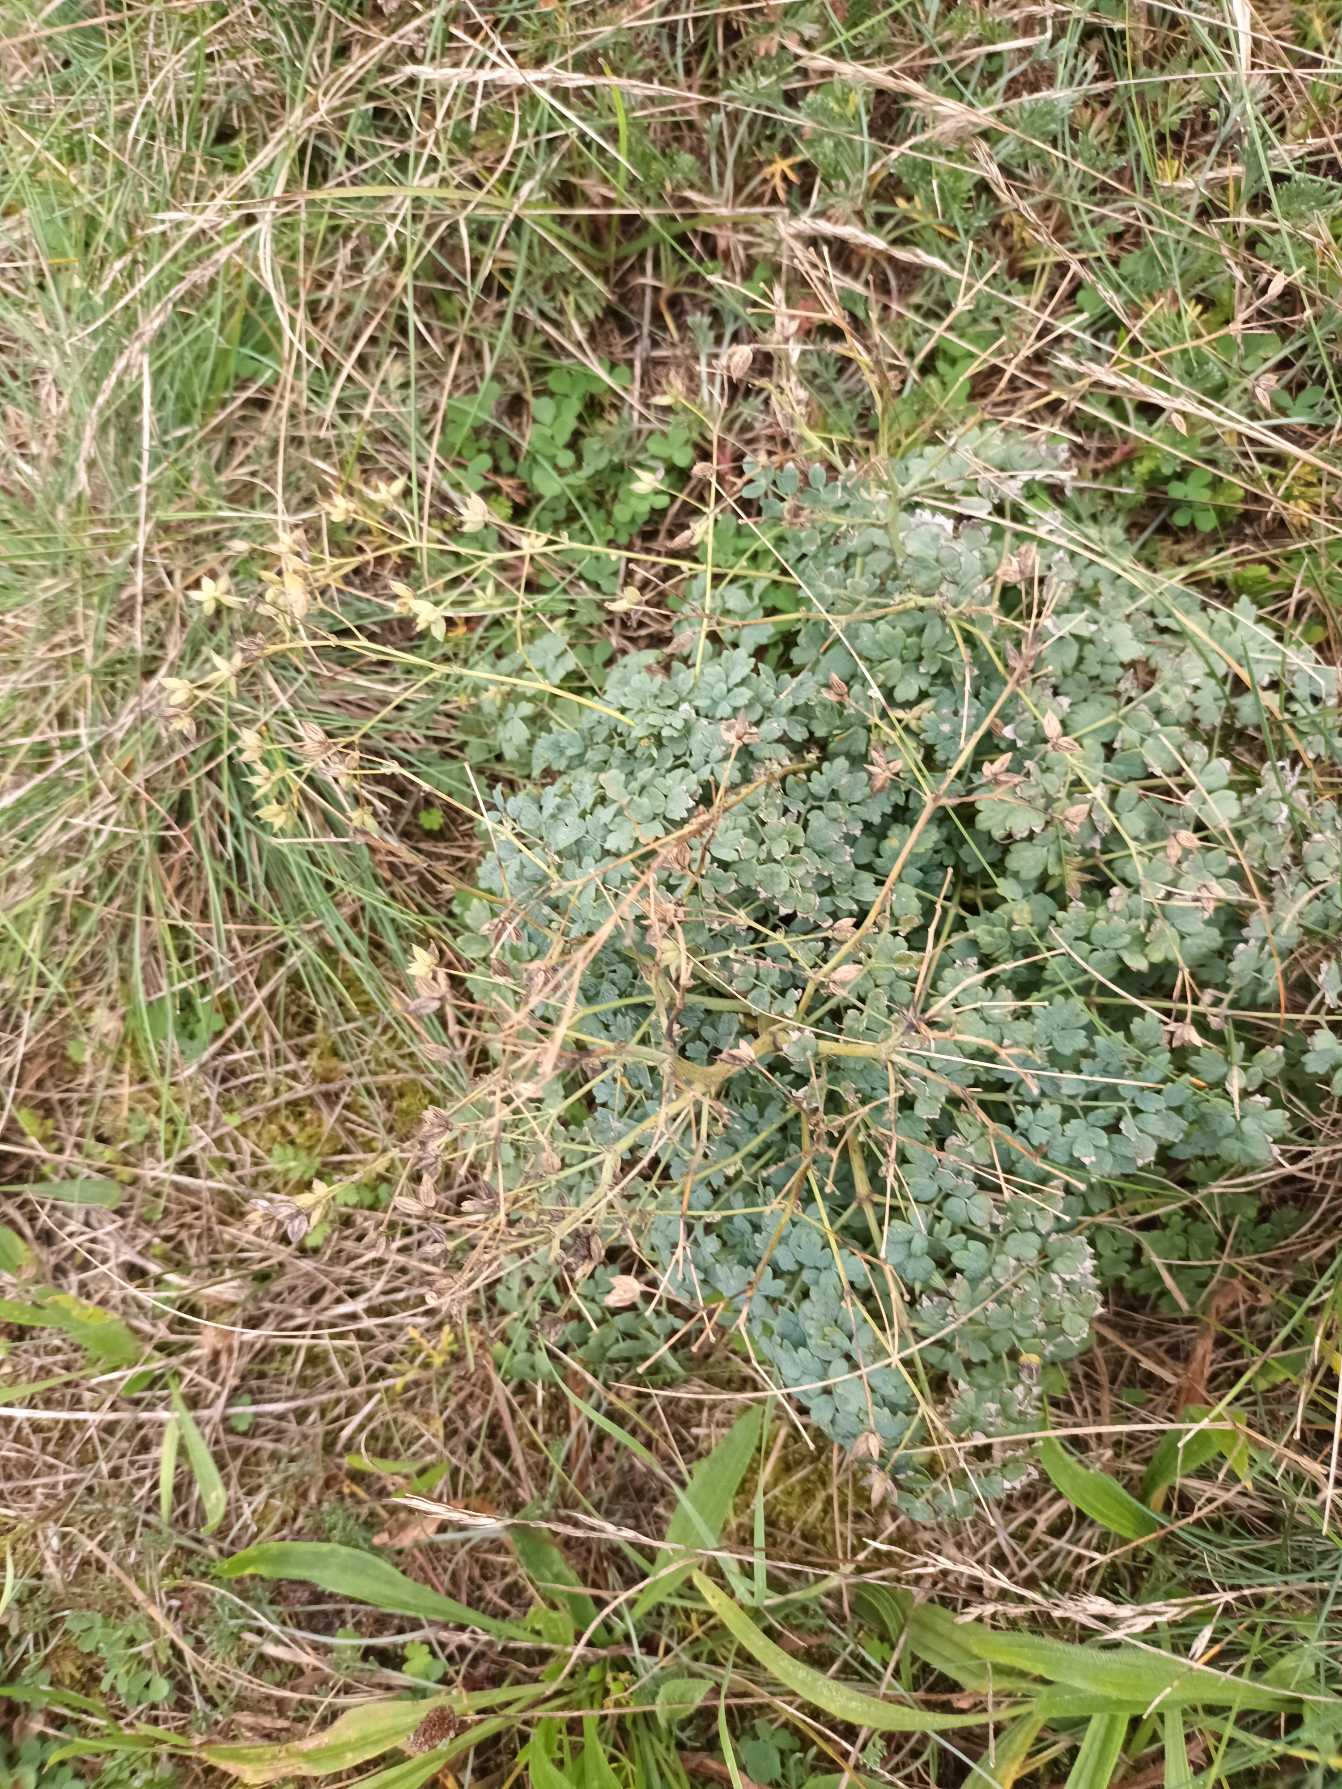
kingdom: Plantae
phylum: Tracheophyta
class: Magnoliopsida
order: Ranunculales
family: Ranunculaceae
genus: Thalictrum
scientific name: Thalictrum minus
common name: Sand-frøstjerne
